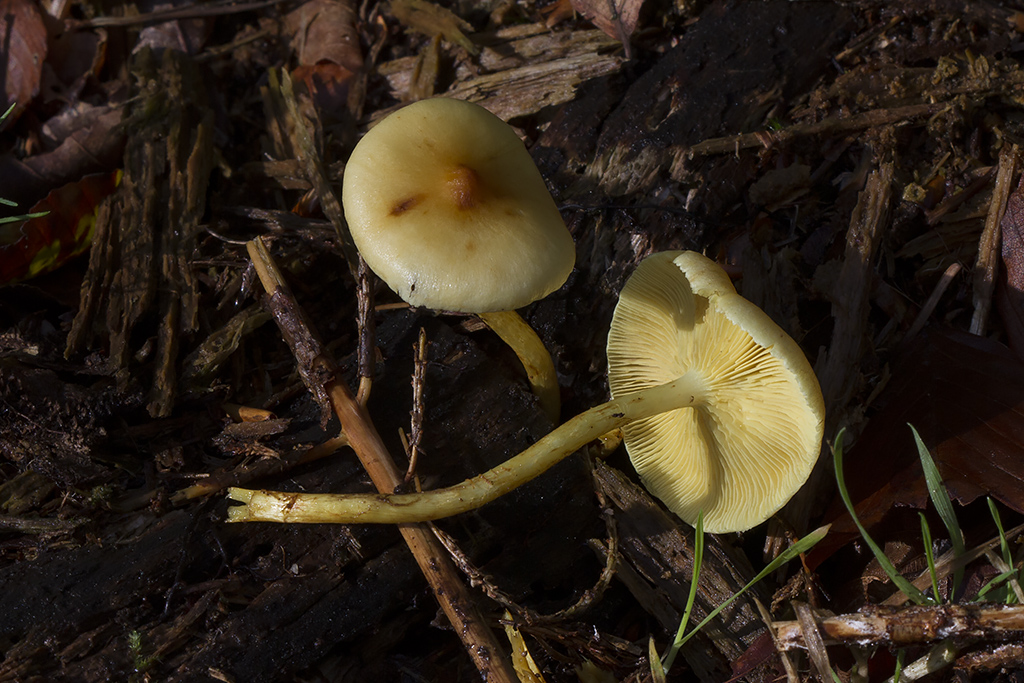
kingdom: Fungi
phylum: Basidiomycota
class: Agaricomycetes
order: Agaricales
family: Strophariaceae
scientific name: Strophariaceae
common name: bredbladfamilien
